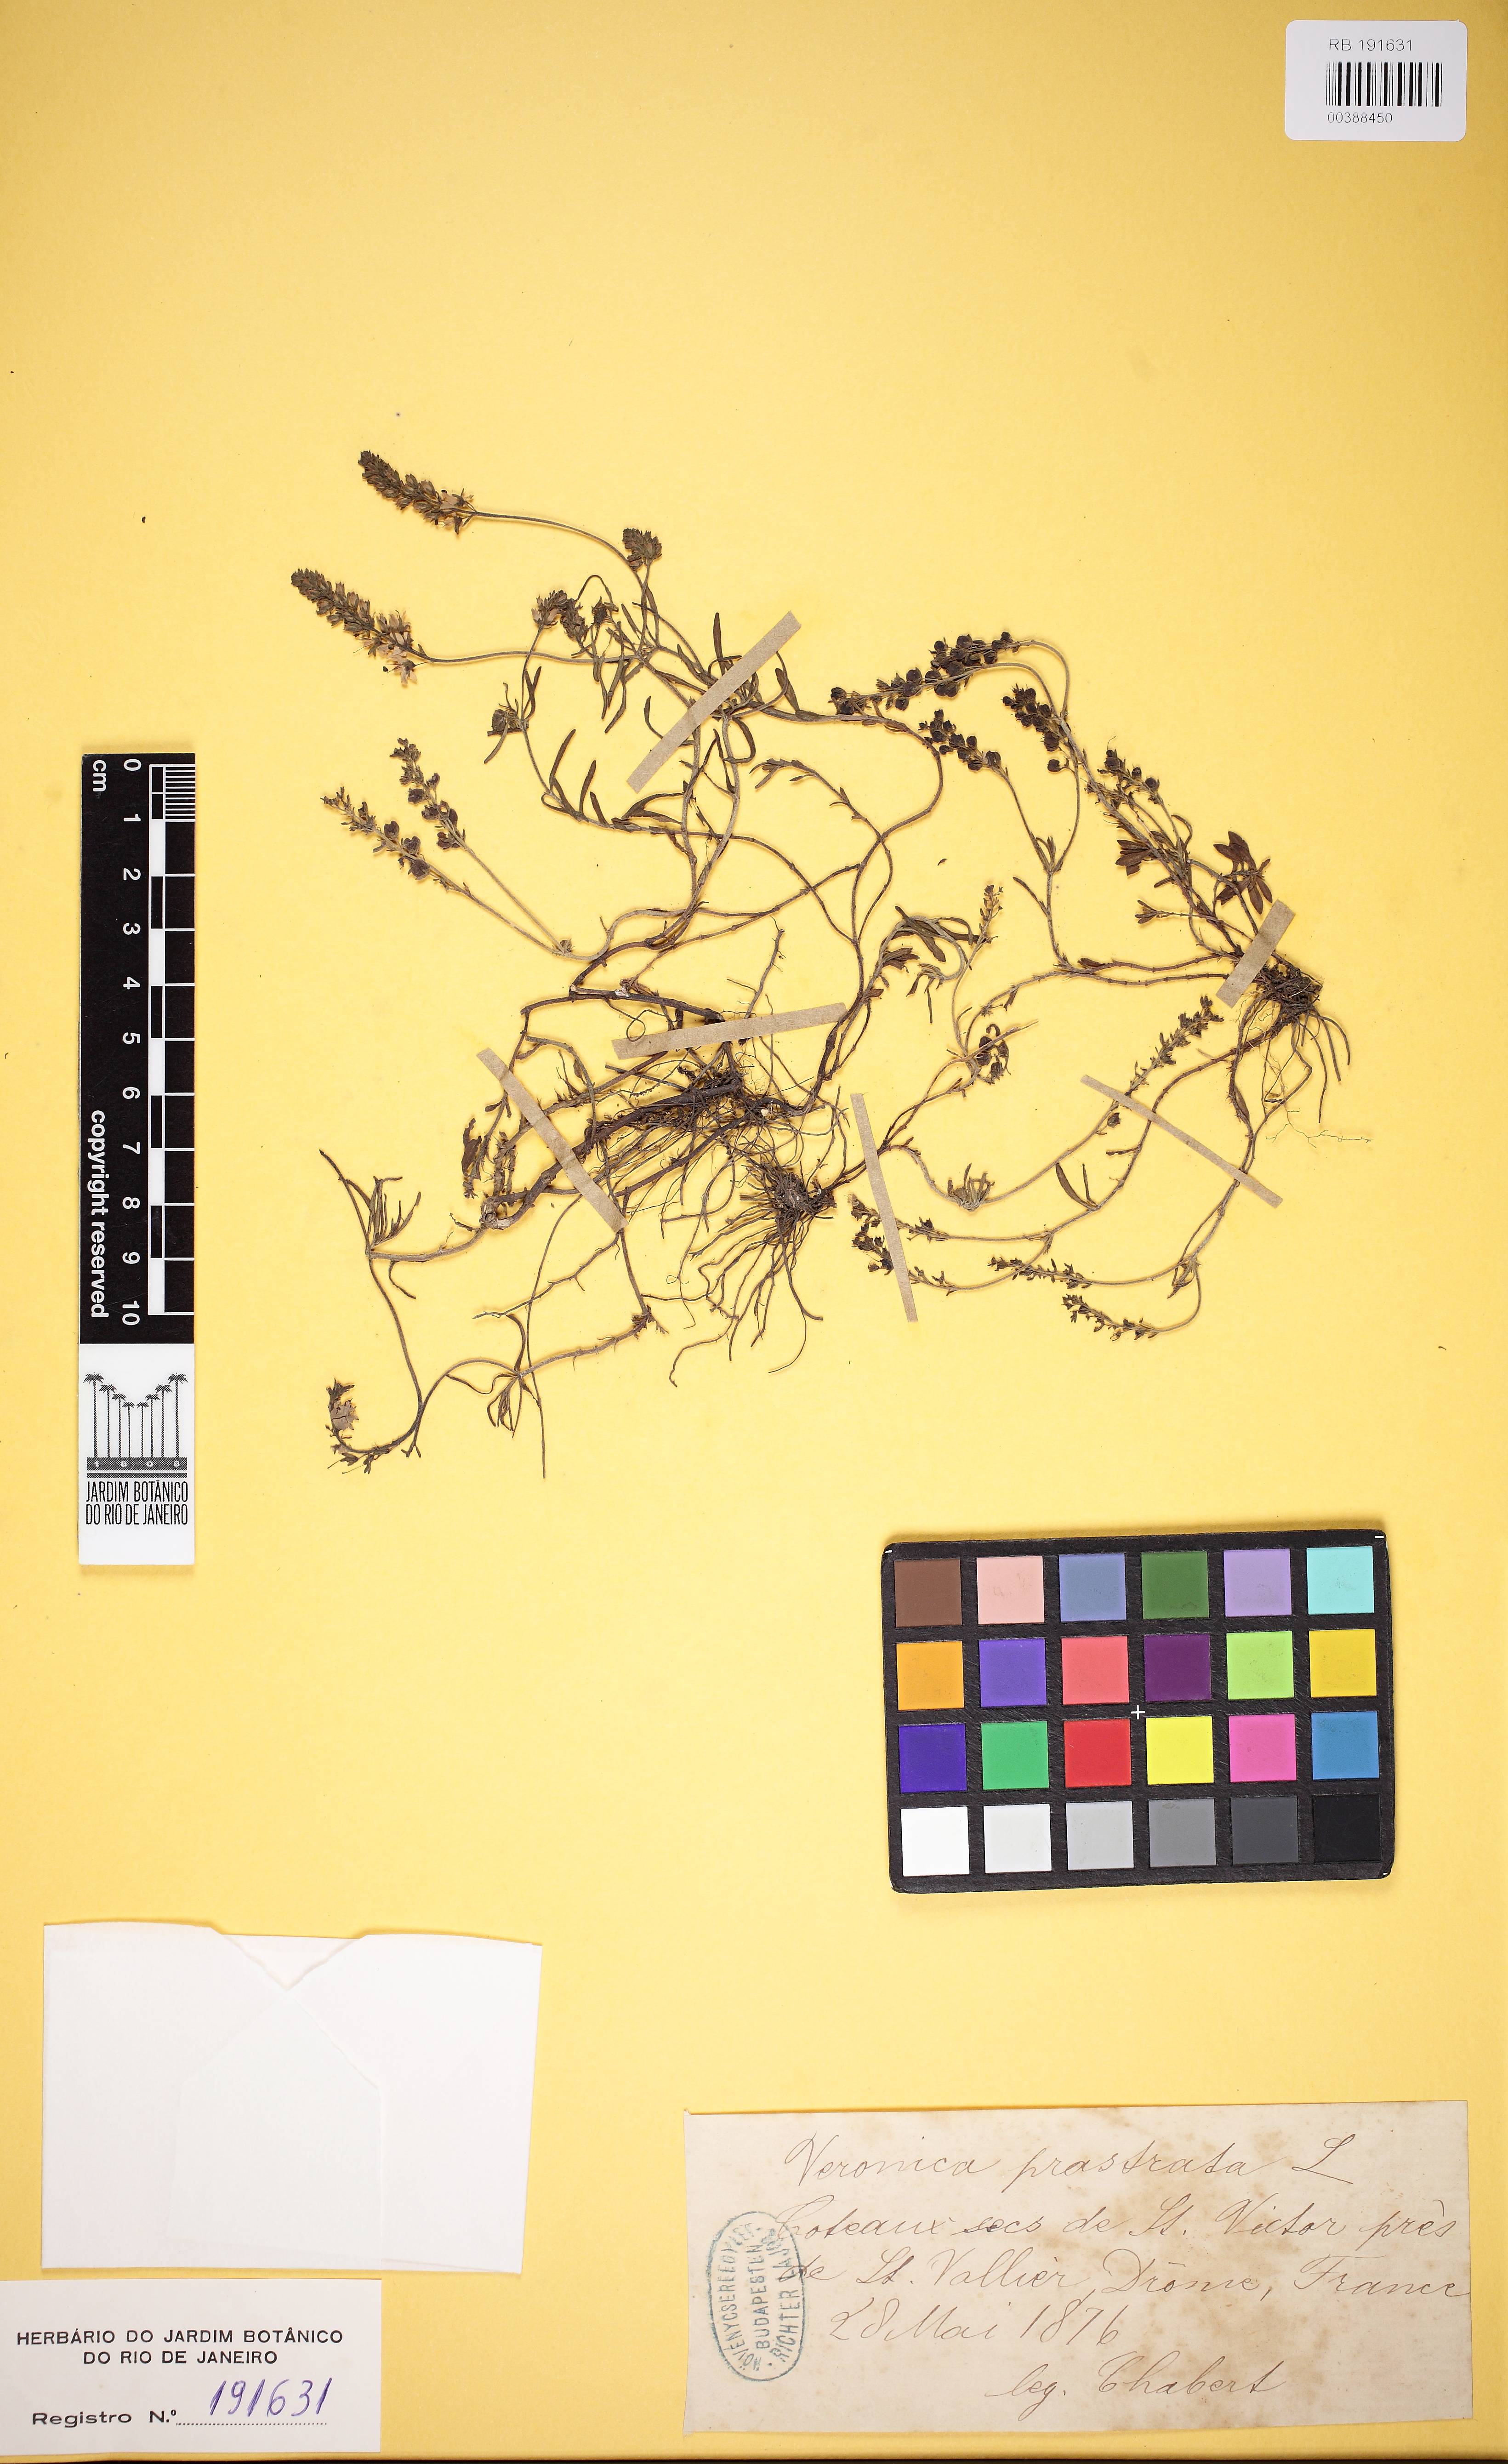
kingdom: Plantae
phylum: Tracheophyta
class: Magnoliopsida
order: Lamiales
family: Plantaginaceae
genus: Veronica
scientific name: Veronica prostrata
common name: Prostrate speedwell
